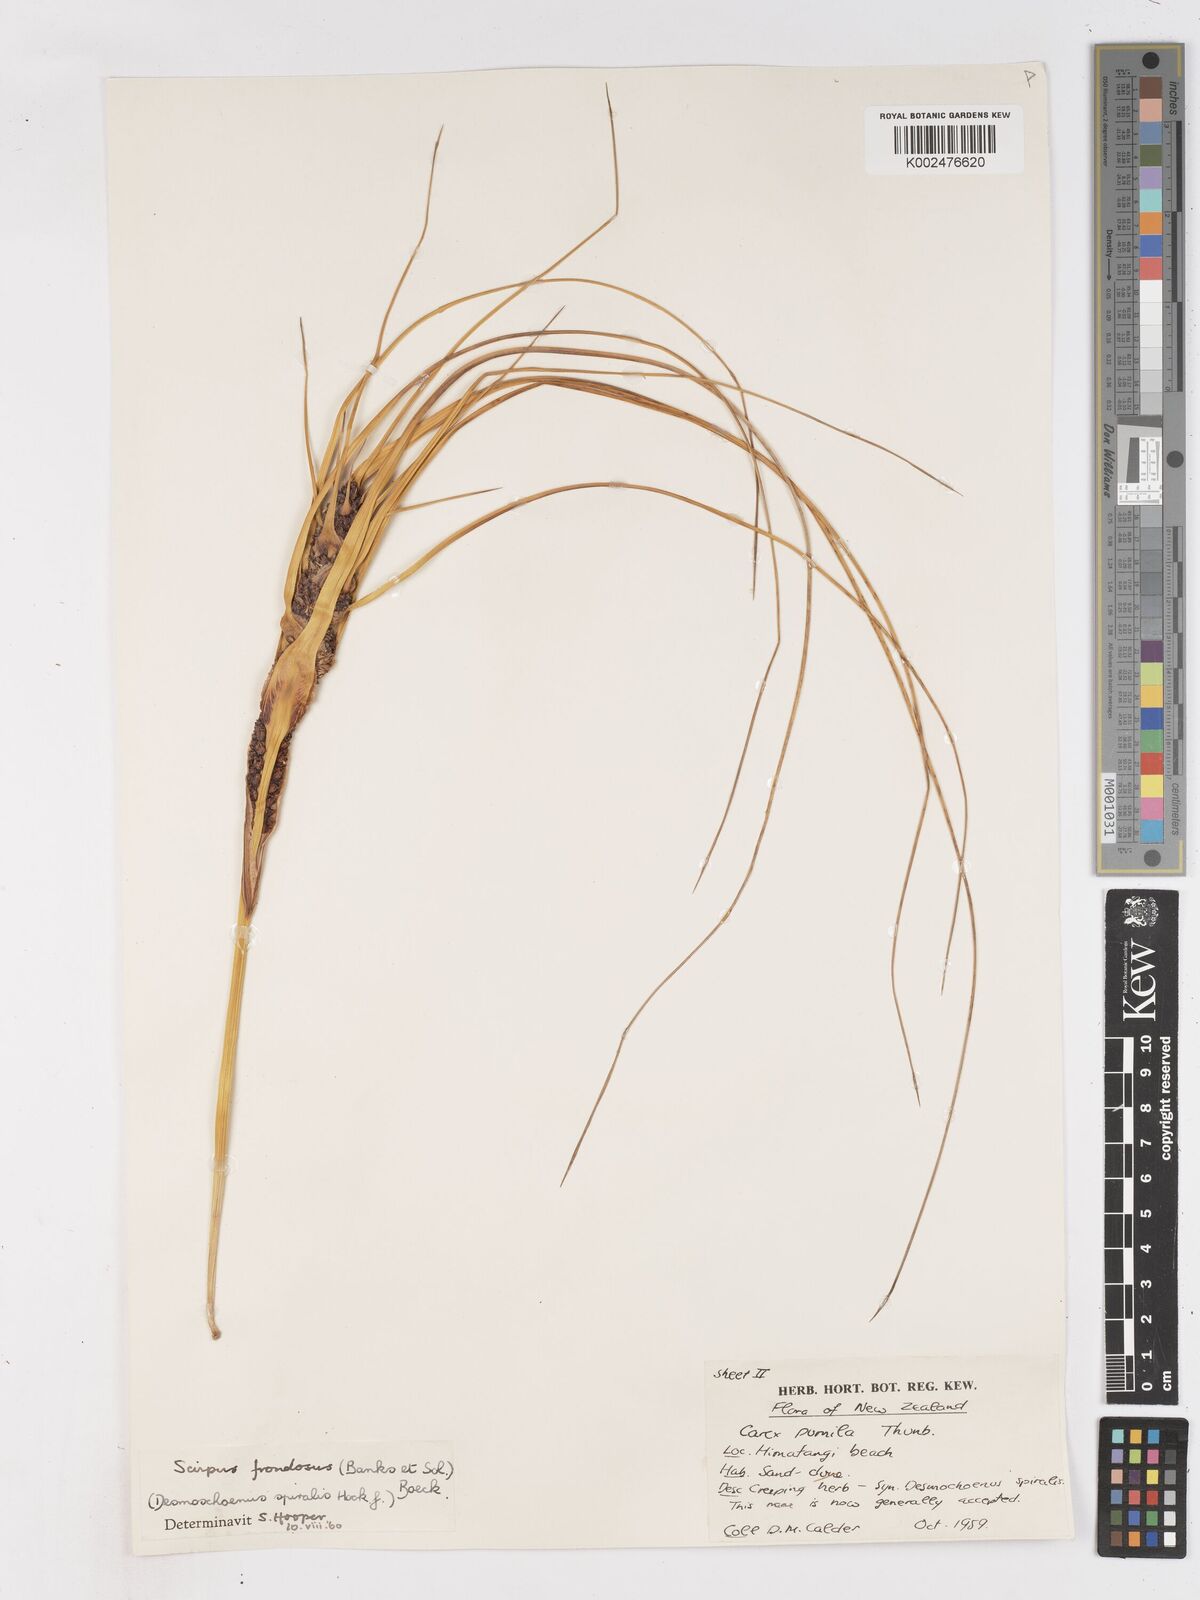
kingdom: Plantae
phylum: Tracheophyta
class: Liliopsida
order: Poales
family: Cyperaceae
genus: Ficinia
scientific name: Ficinia
